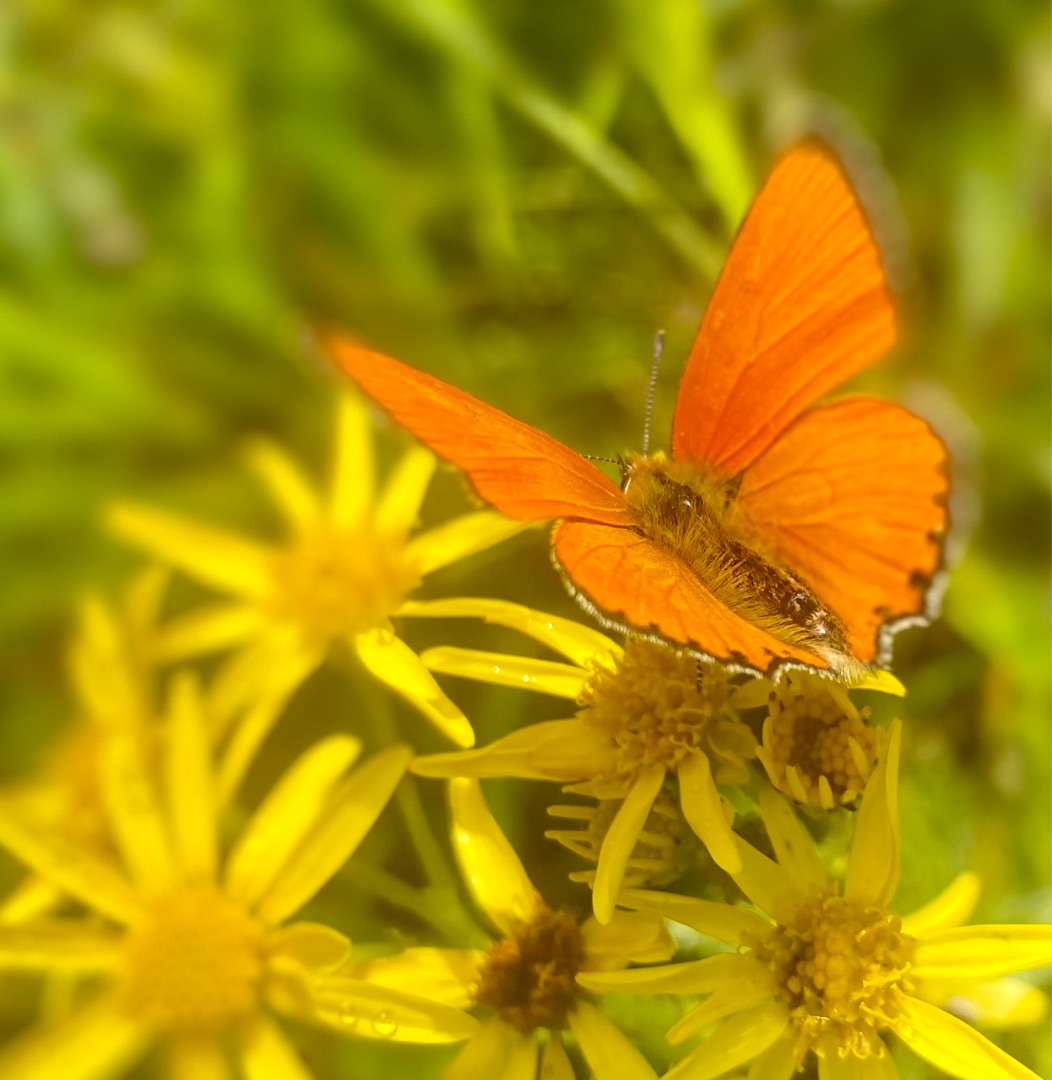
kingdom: Animalia
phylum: Arthropoda
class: Insecta
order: Lepidoptera
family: Lycaenidae
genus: Lycaena
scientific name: Lycaena virgaureae
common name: Dukatsommerfugl
